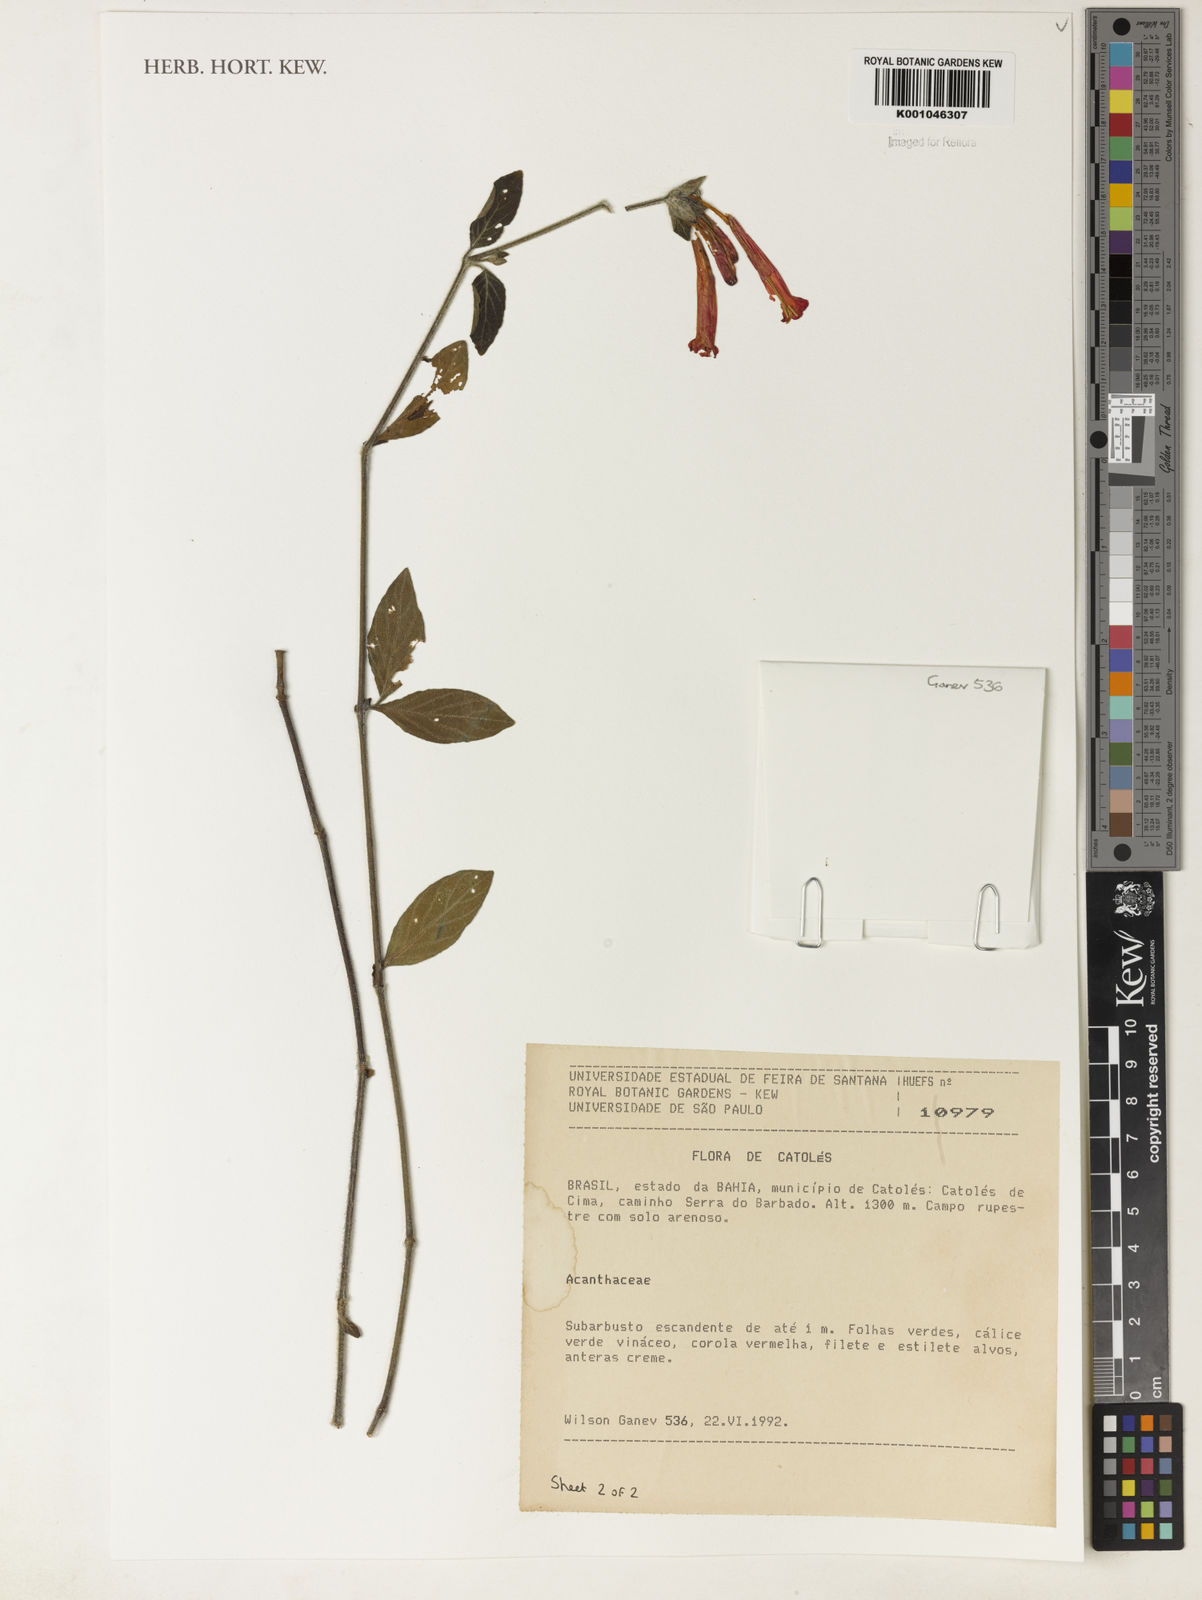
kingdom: Plantae
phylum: Tracheophyta
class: Magnoliopsida
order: Lamiales
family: Acanthaceae
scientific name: Acanthaceae
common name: Acanthaceae
